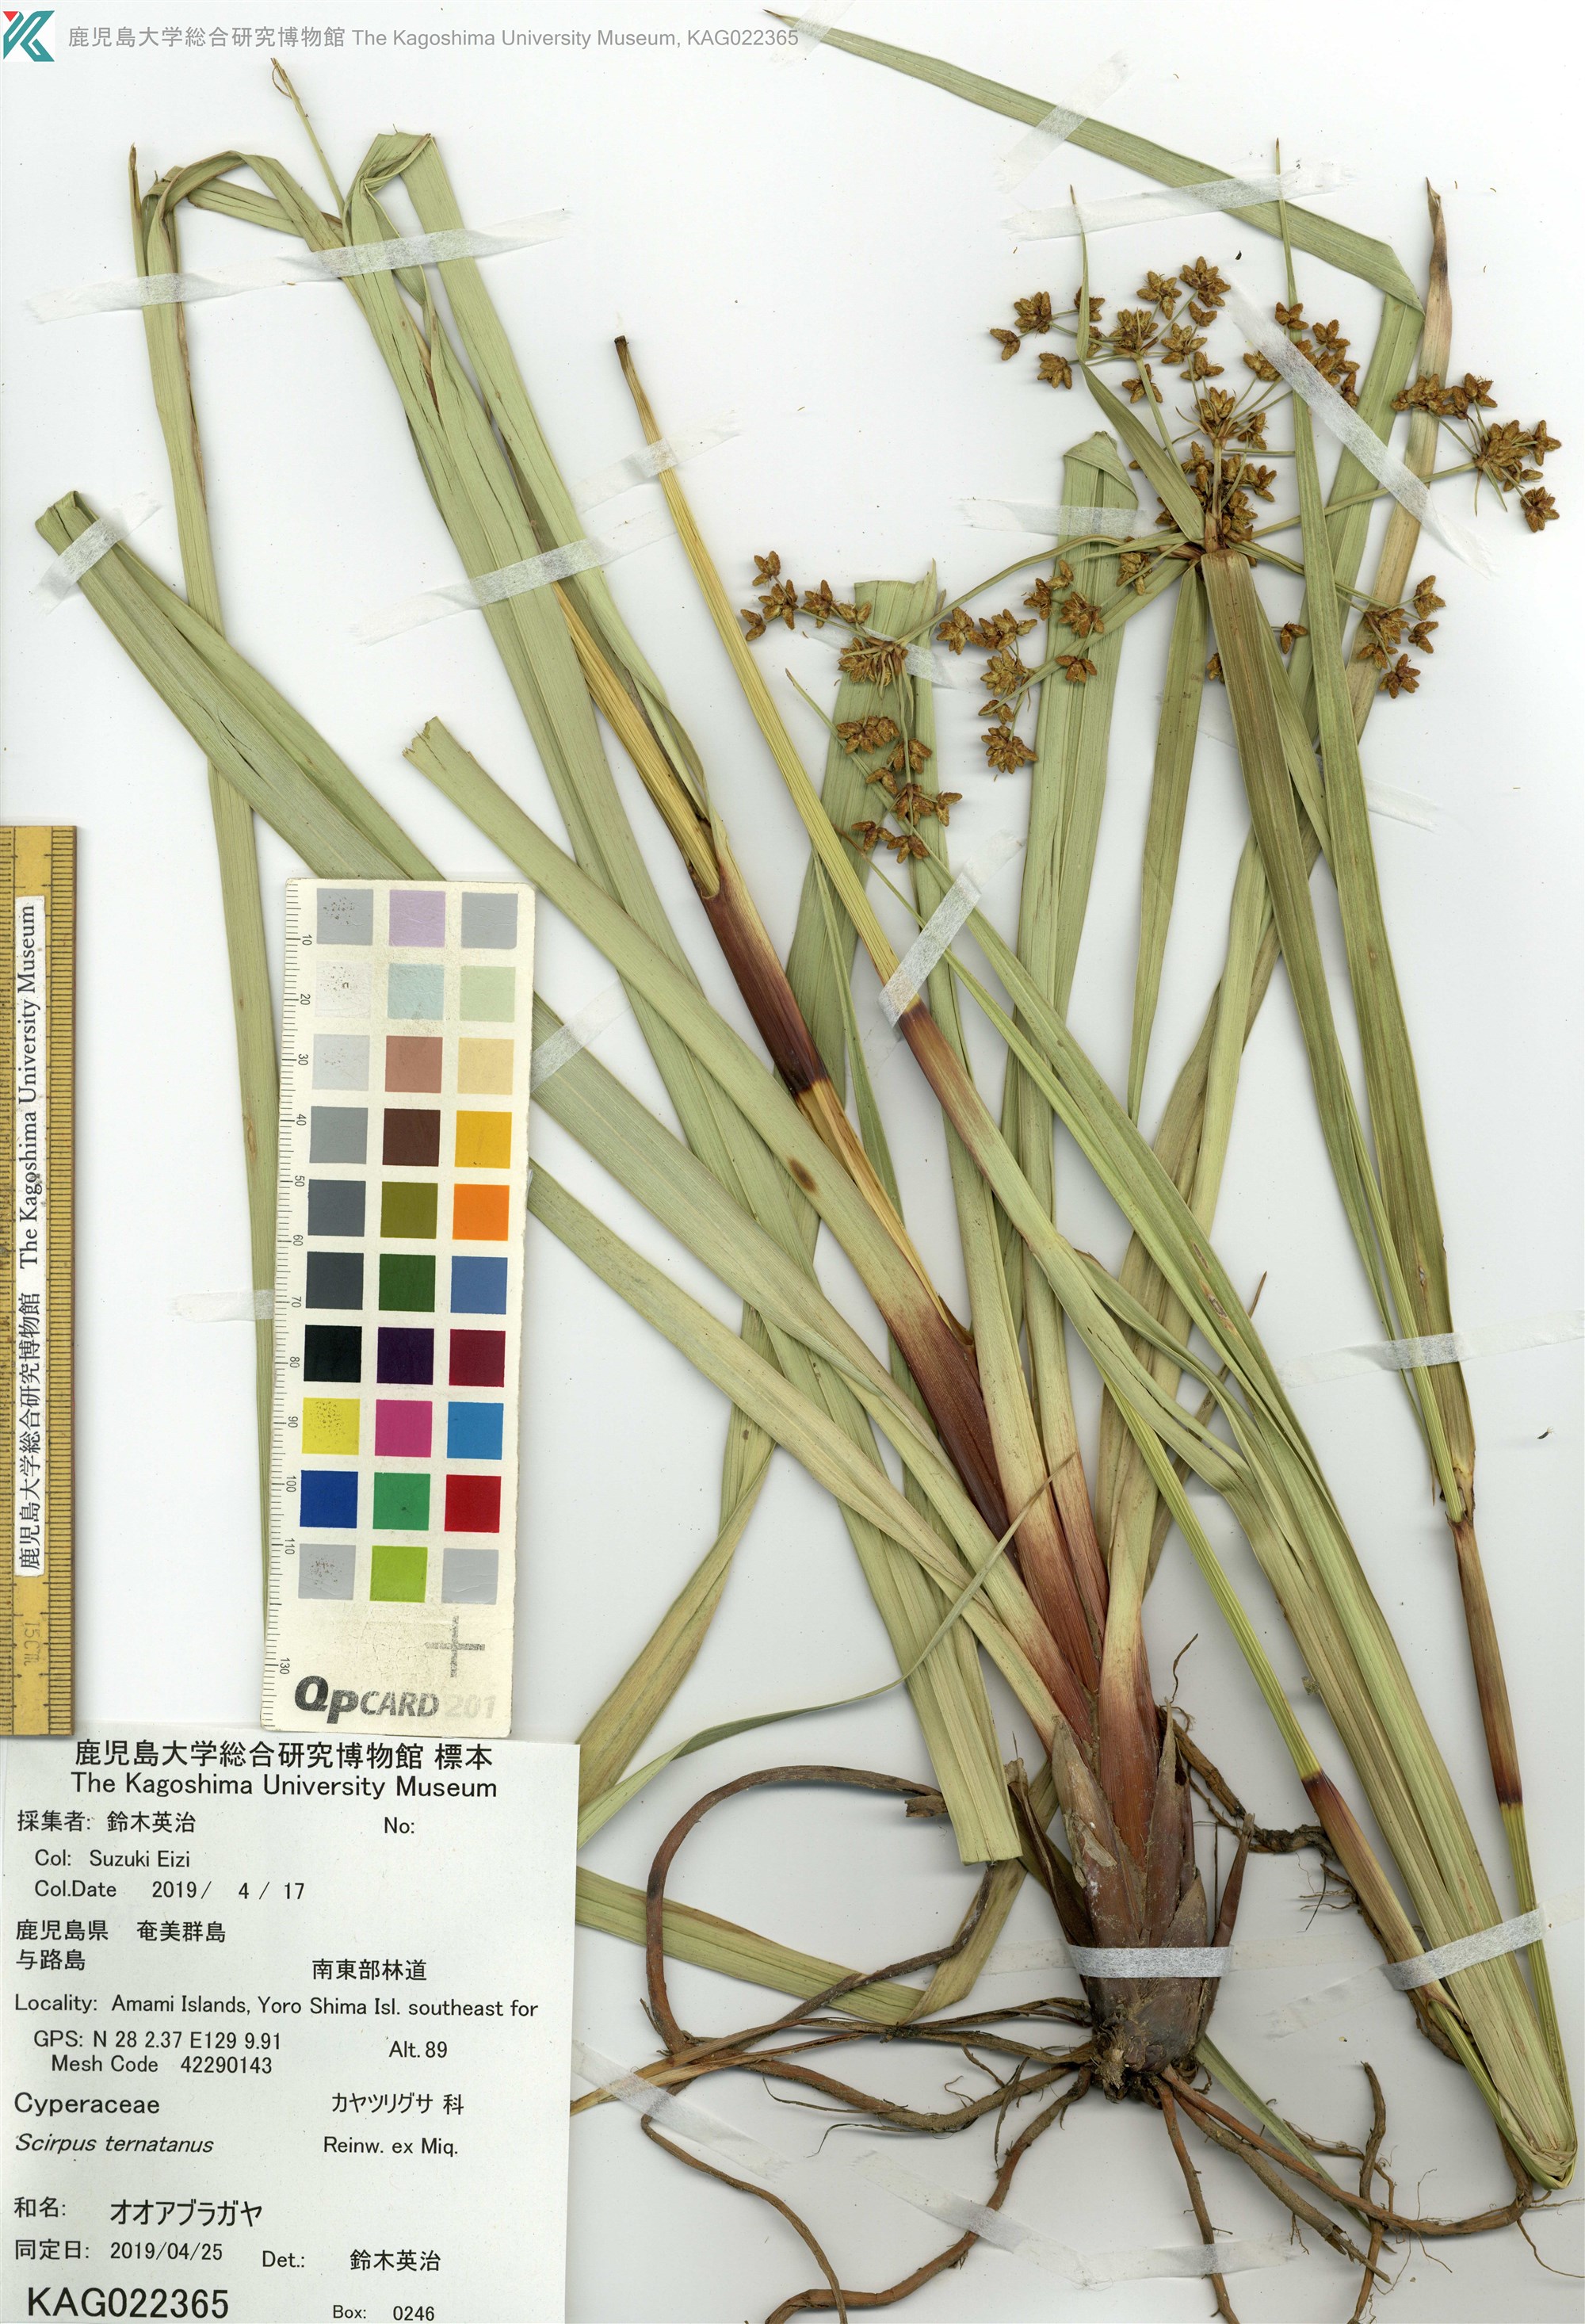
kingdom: Plantae
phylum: Tracheophyta
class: Liliopsida
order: Poales
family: Cyperaceae
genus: Scirpus
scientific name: Scirpus ternatanus
